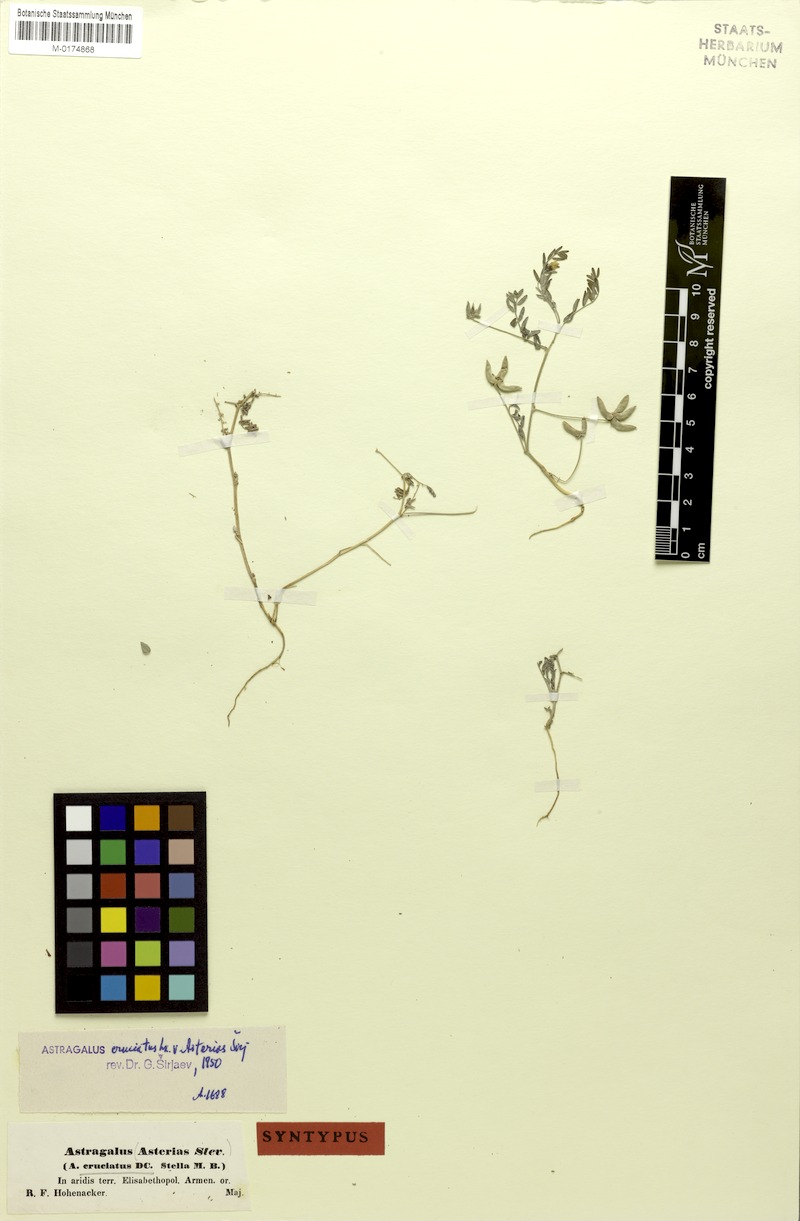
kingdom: Plantae
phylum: Tracheophyta
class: Magnoliopsida
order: Fabales
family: Fabaceae
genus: Astragalus
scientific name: Astragalus asterias
